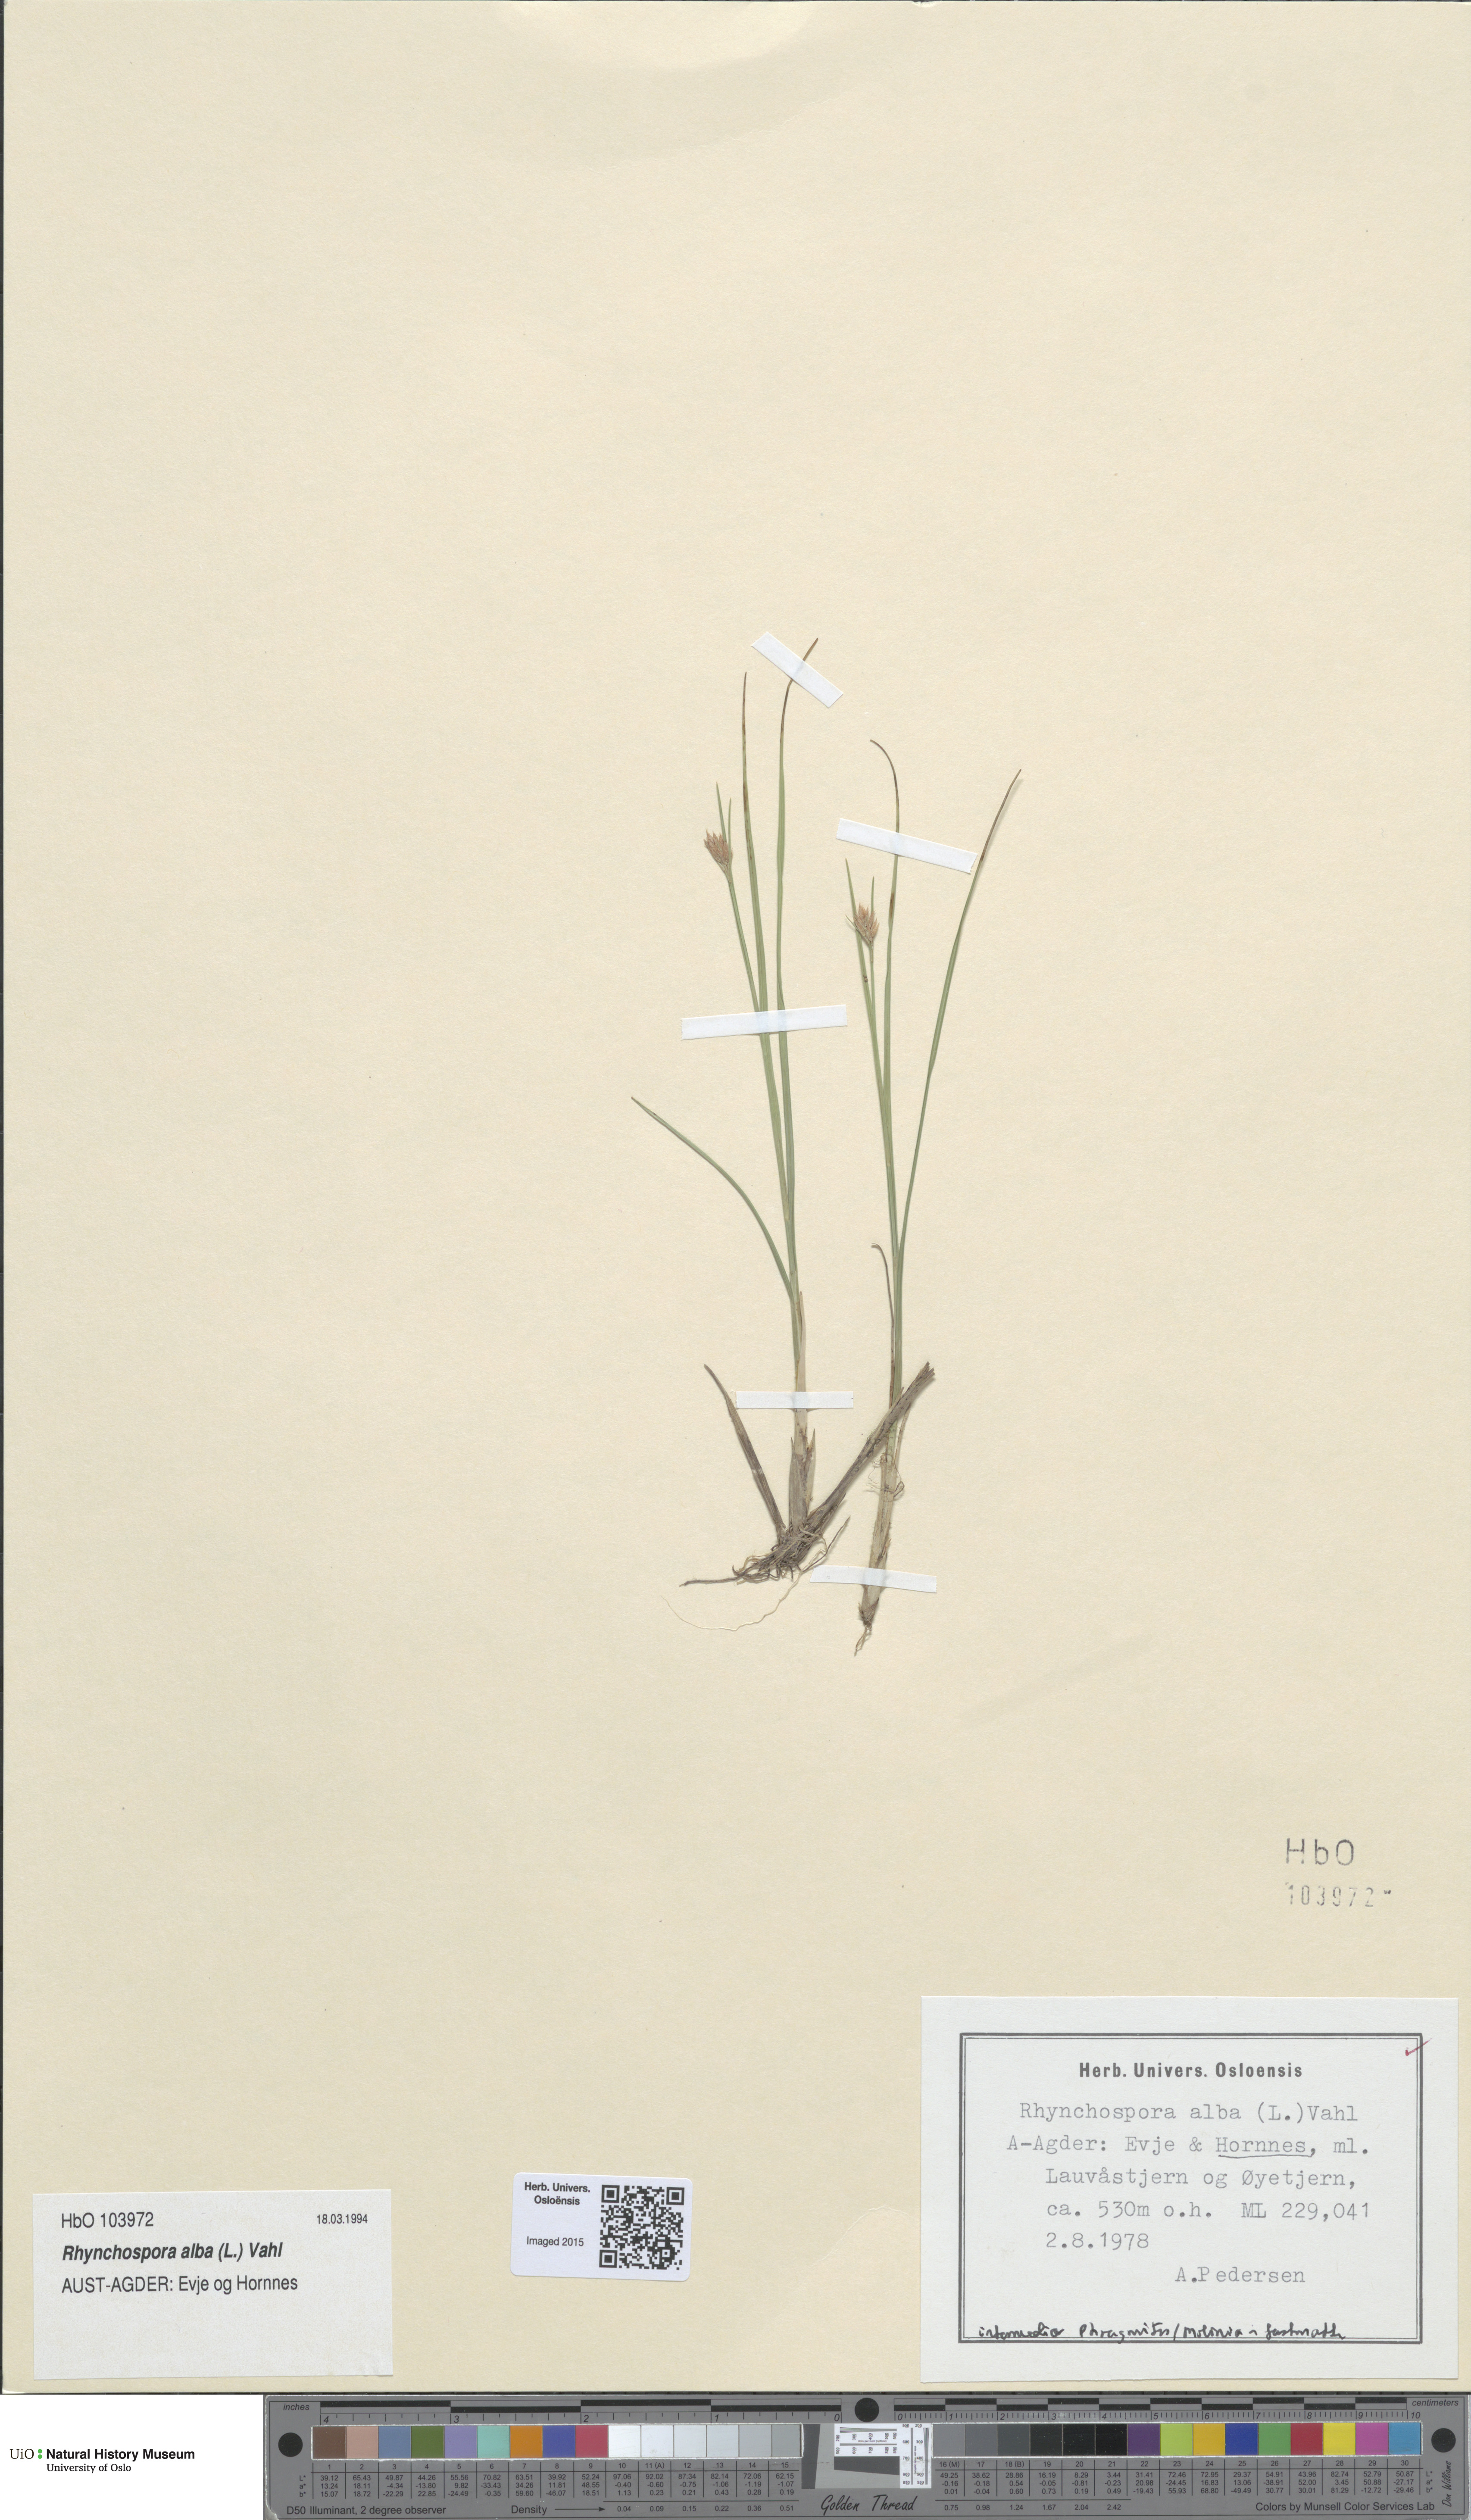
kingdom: Plantae
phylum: Tracheophyta
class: Liliopsida
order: Poales
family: Cyperaceae
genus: Rhynchospora
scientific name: Rhynchospora alba
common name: White beak-sedge
